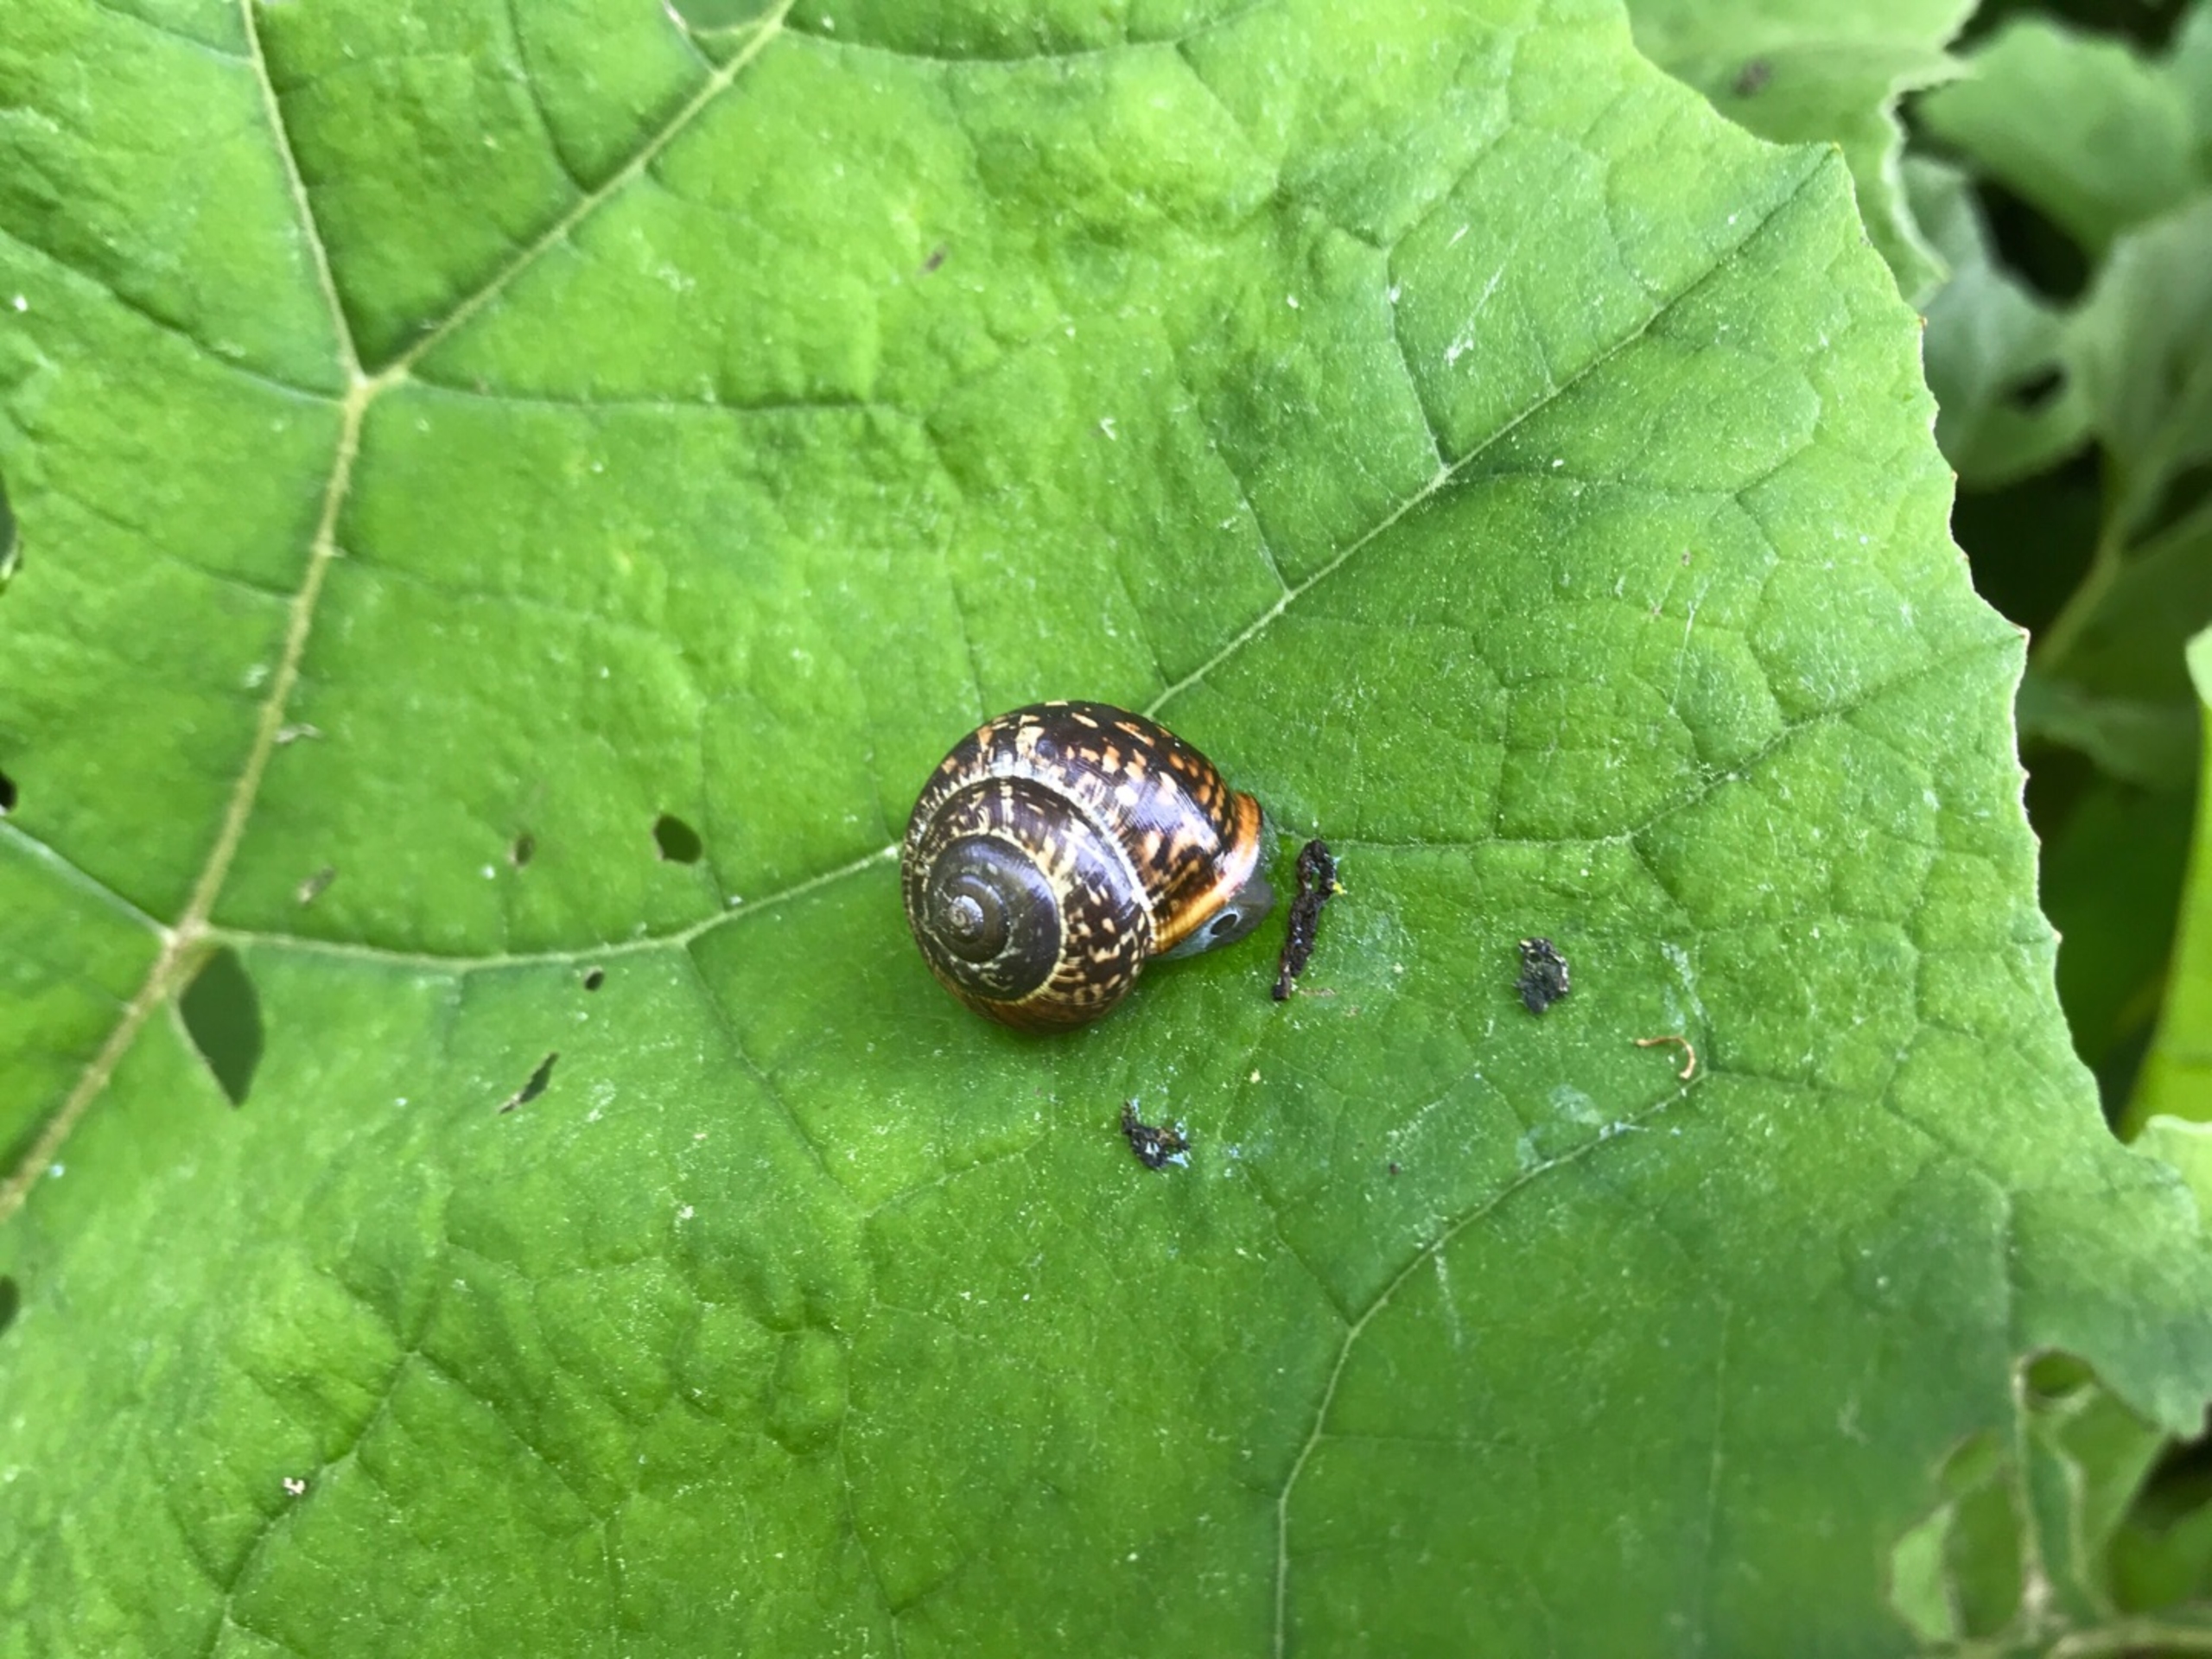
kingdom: Animalia
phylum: Mollusca
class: Gastropoda
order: Stylommatophora
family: Helicidae
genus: Arianta
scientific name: Arianta arbustorum
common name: Kratsnegl
